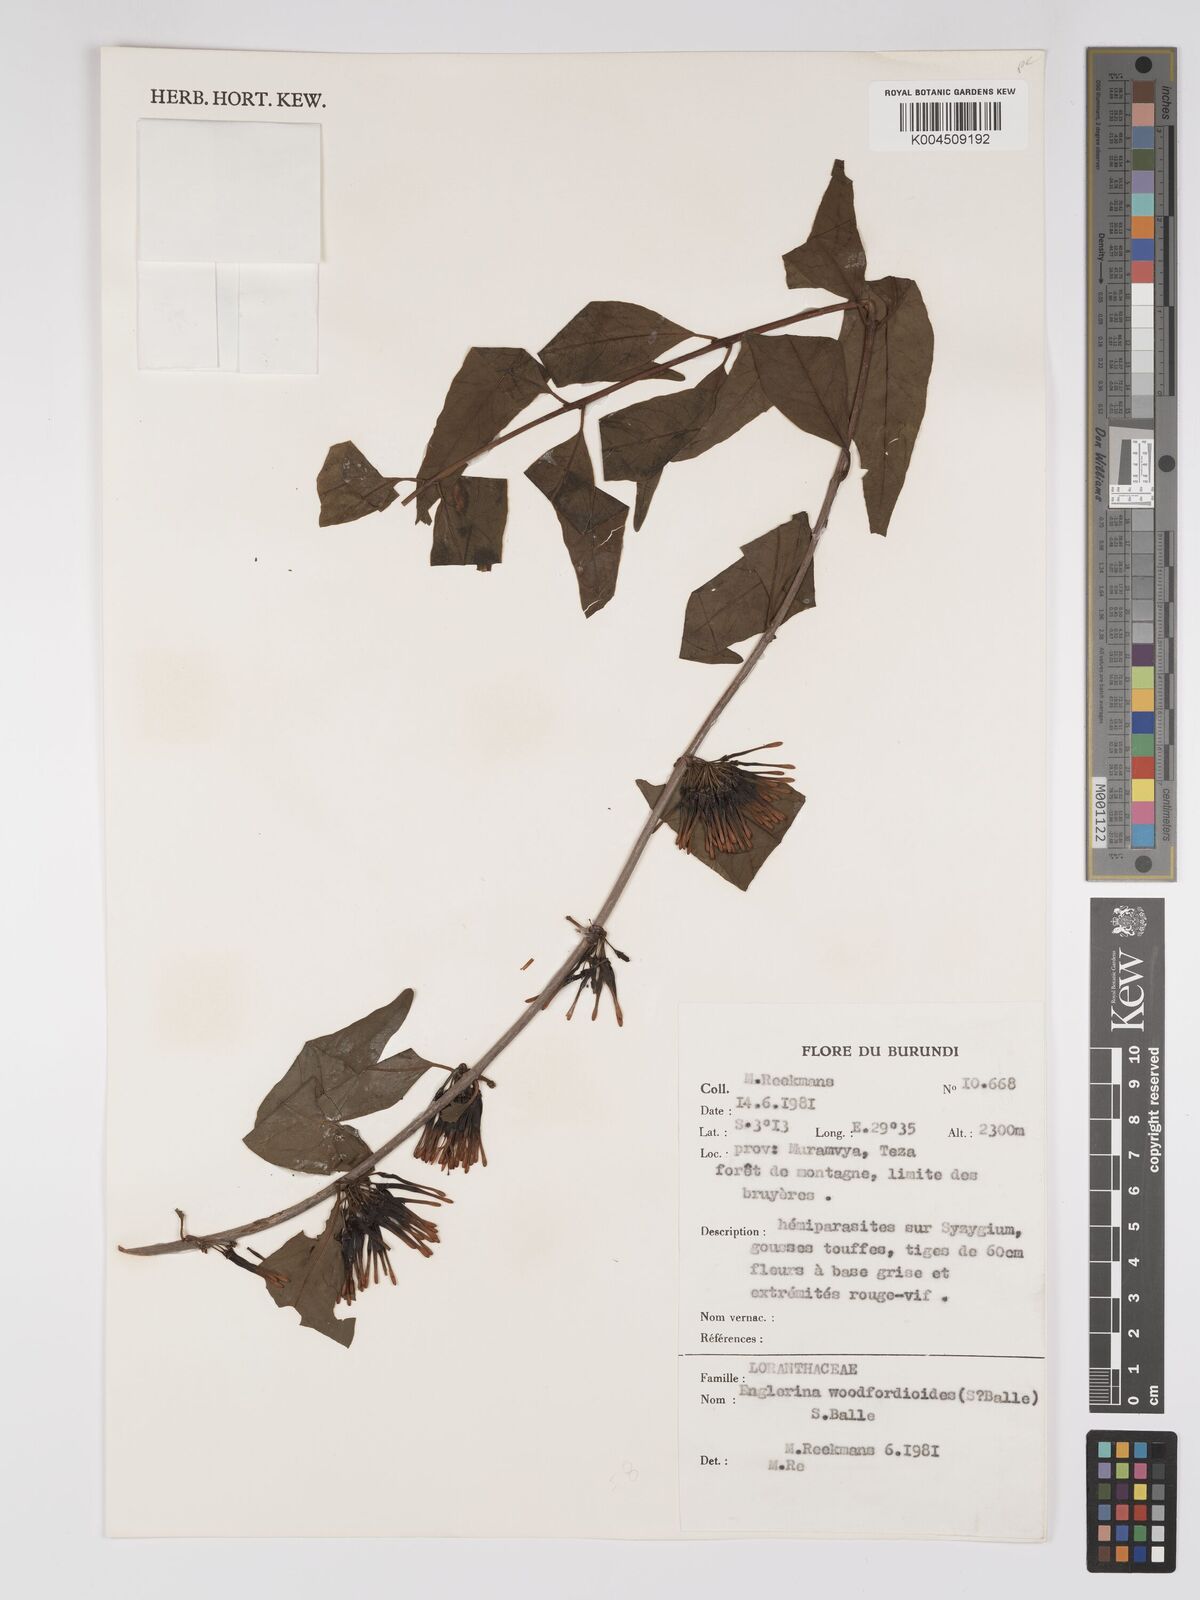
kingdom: Plantae
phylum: Tracheophyta
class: Magnoliopsida
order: Santalales
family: Loranthaceae
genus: Englerina
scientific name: Englerina woodfordioides
